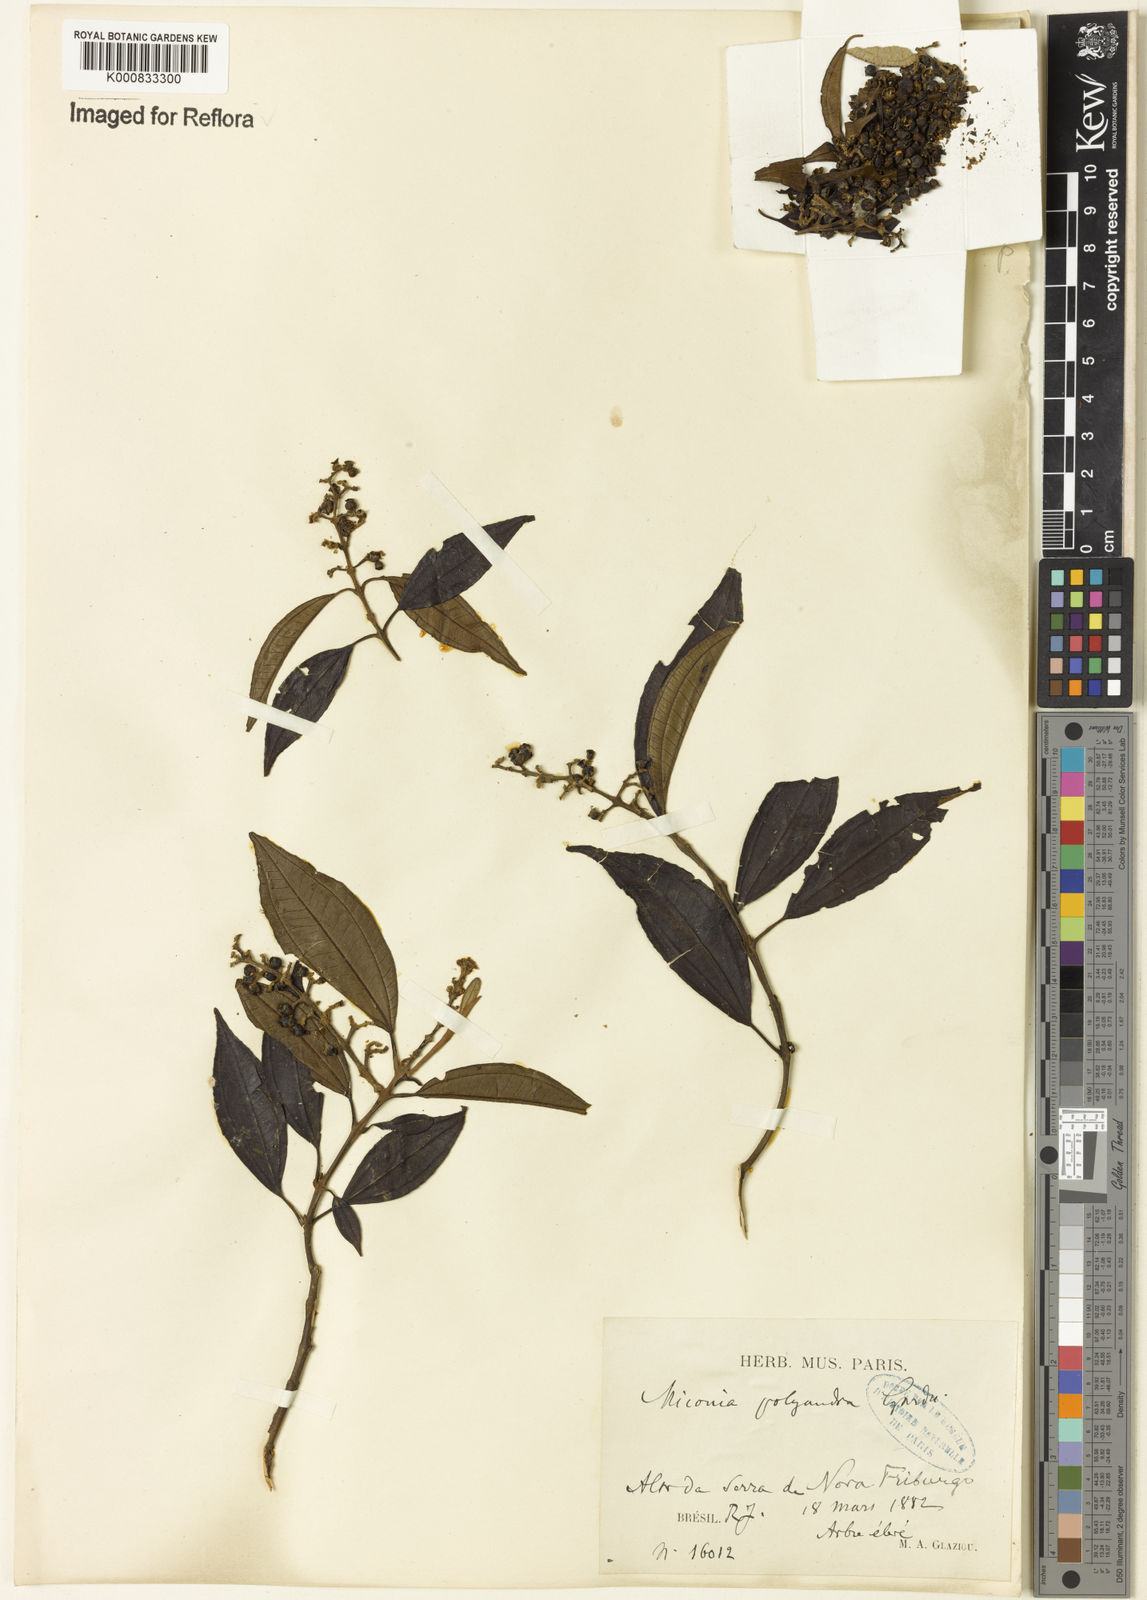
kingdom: Plantae
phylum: Tracheophyta
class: Magnoliopsida
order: Myrtales
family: Melastomataceae
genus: Miconia
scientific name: Miconia polyandra
